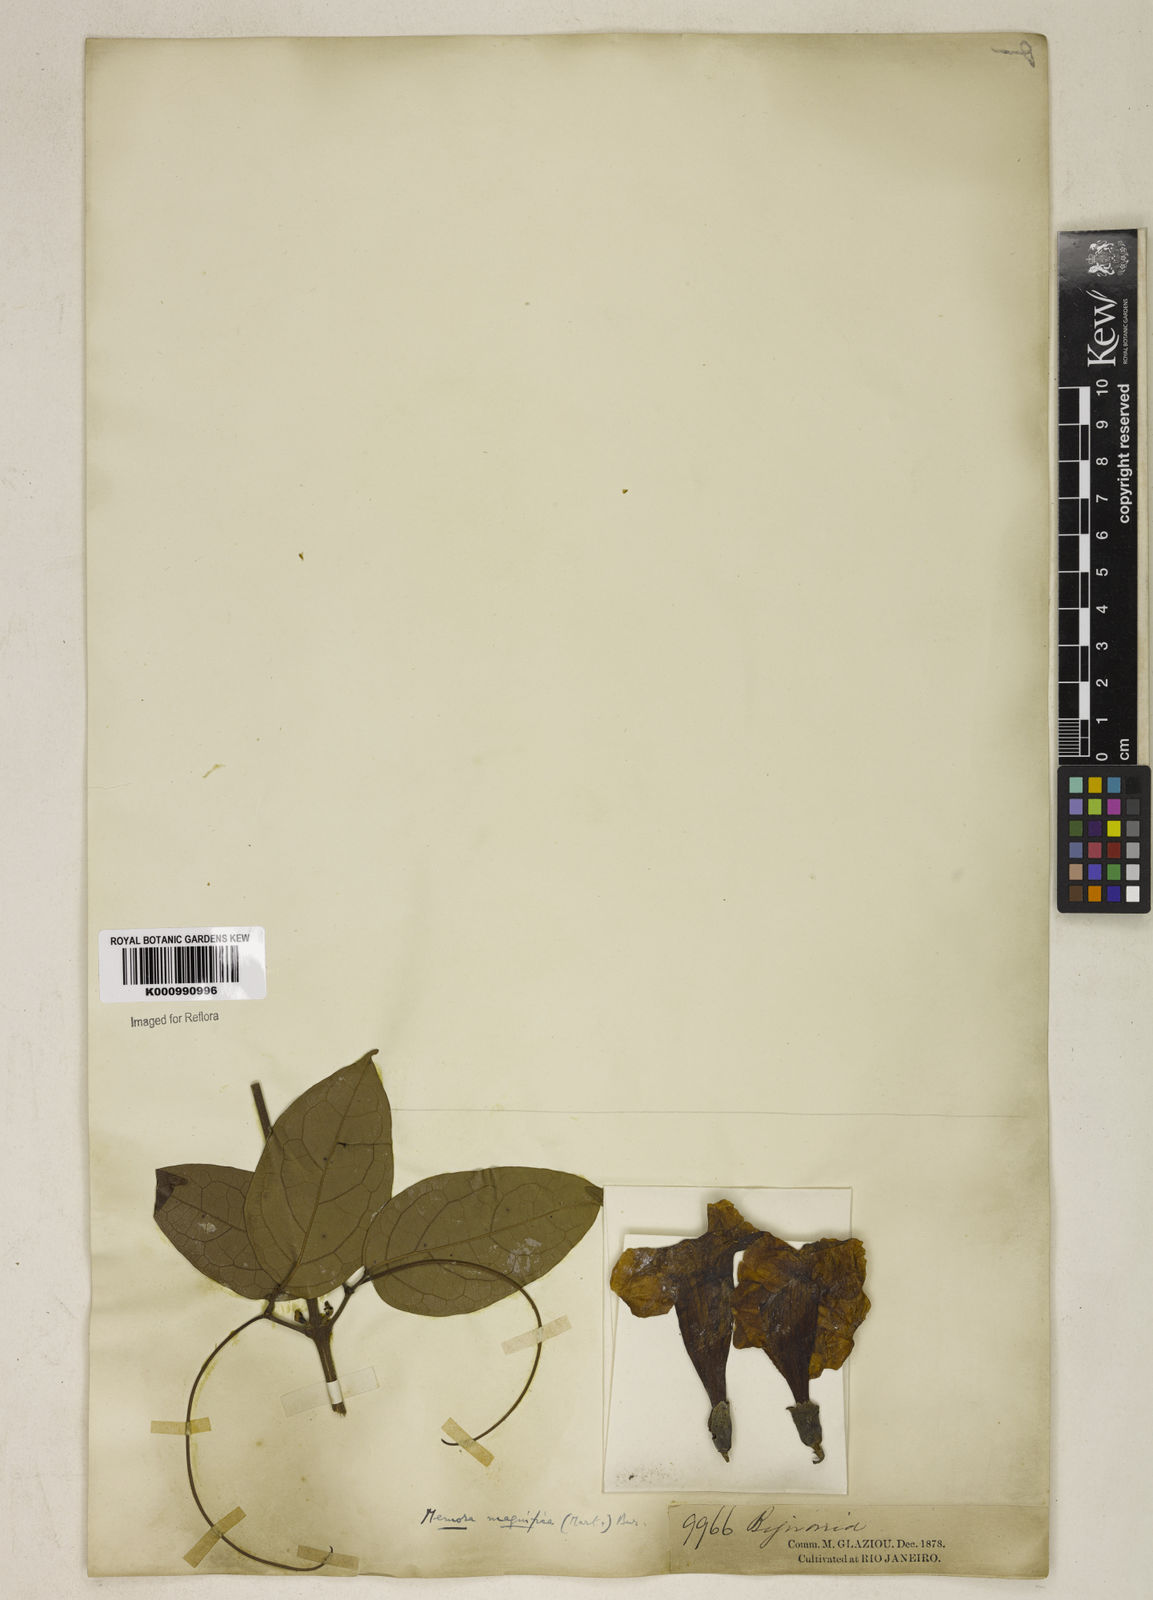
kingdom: Plantae
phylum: Tracheophyta
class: Magnoliopsida
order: Lamiales
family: Bignoniaceae
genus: Adenocalymma
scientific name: Adenocalymma magnificum
